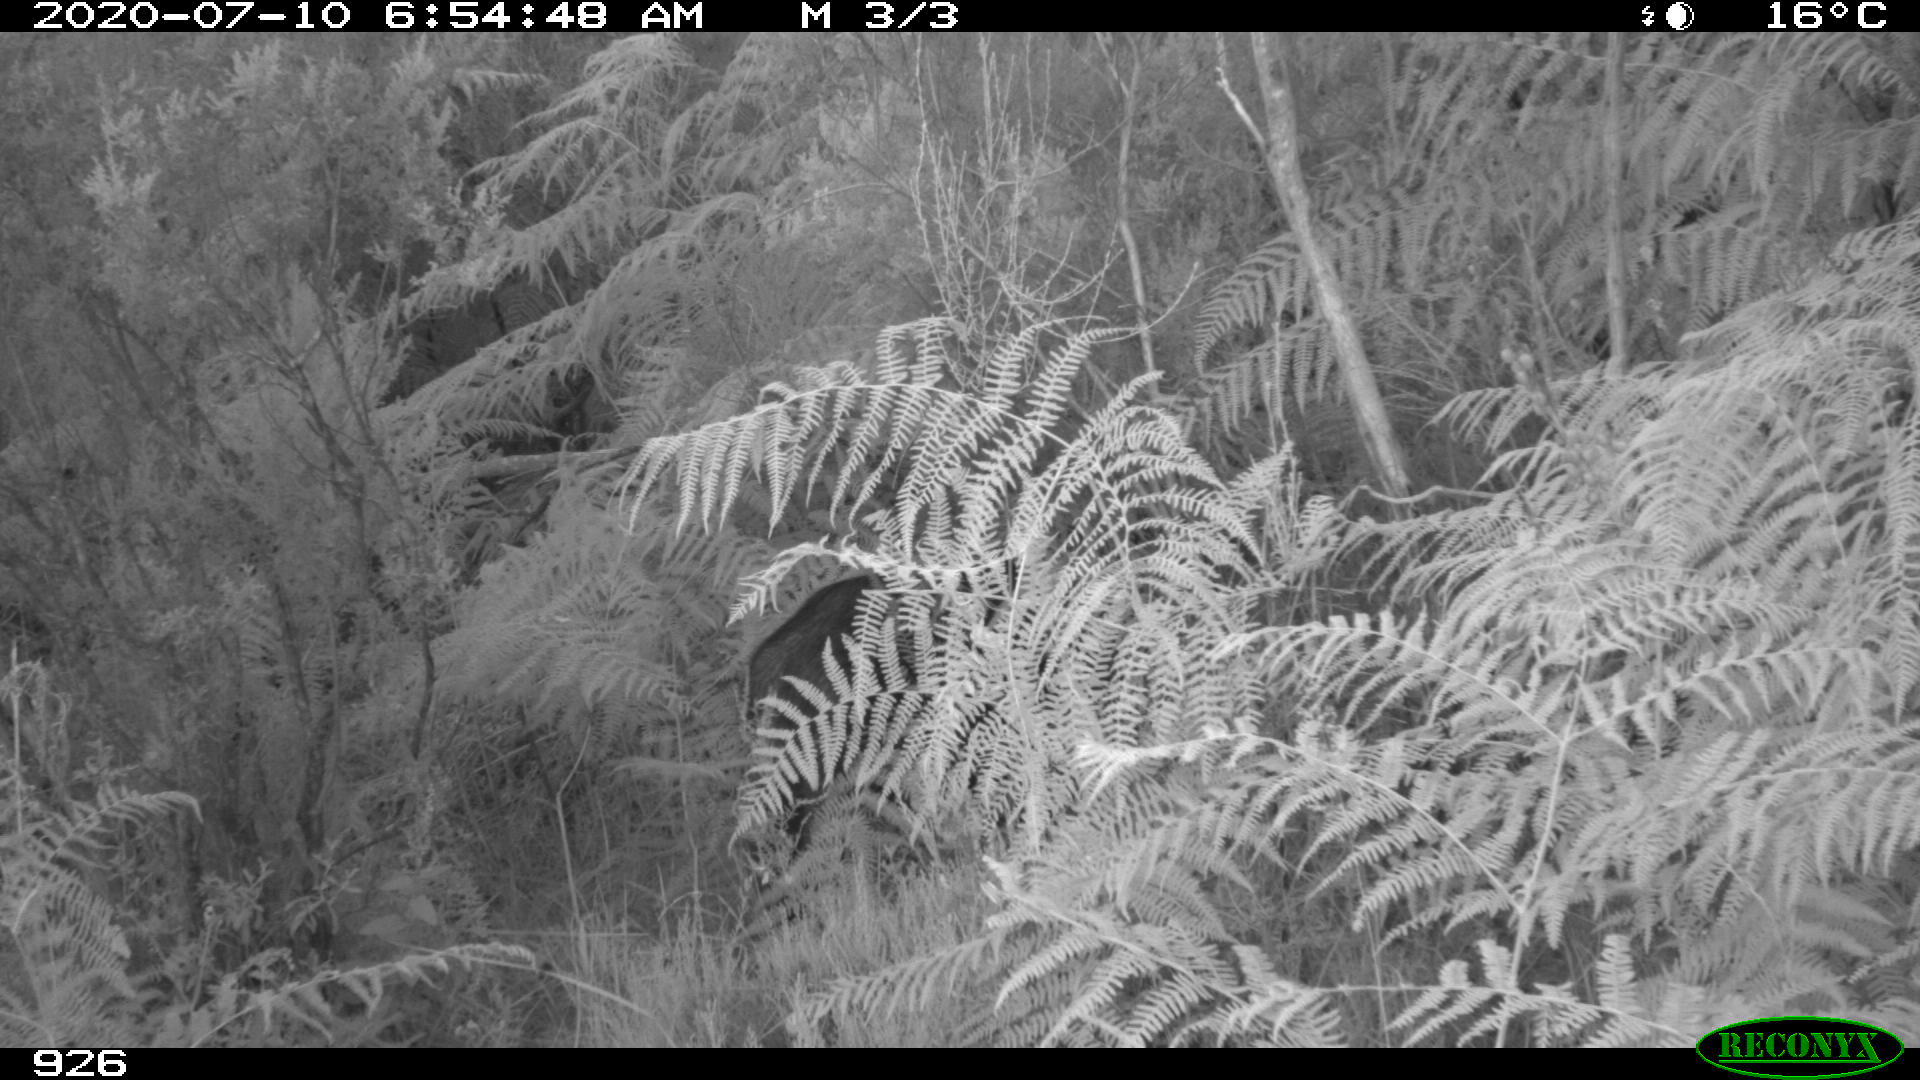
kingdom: Animalia
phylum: Chordata
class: Mammalia
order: Artiodactyla
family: Suidae
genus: Sus
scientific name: Sus scrofa
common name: Wild boar
